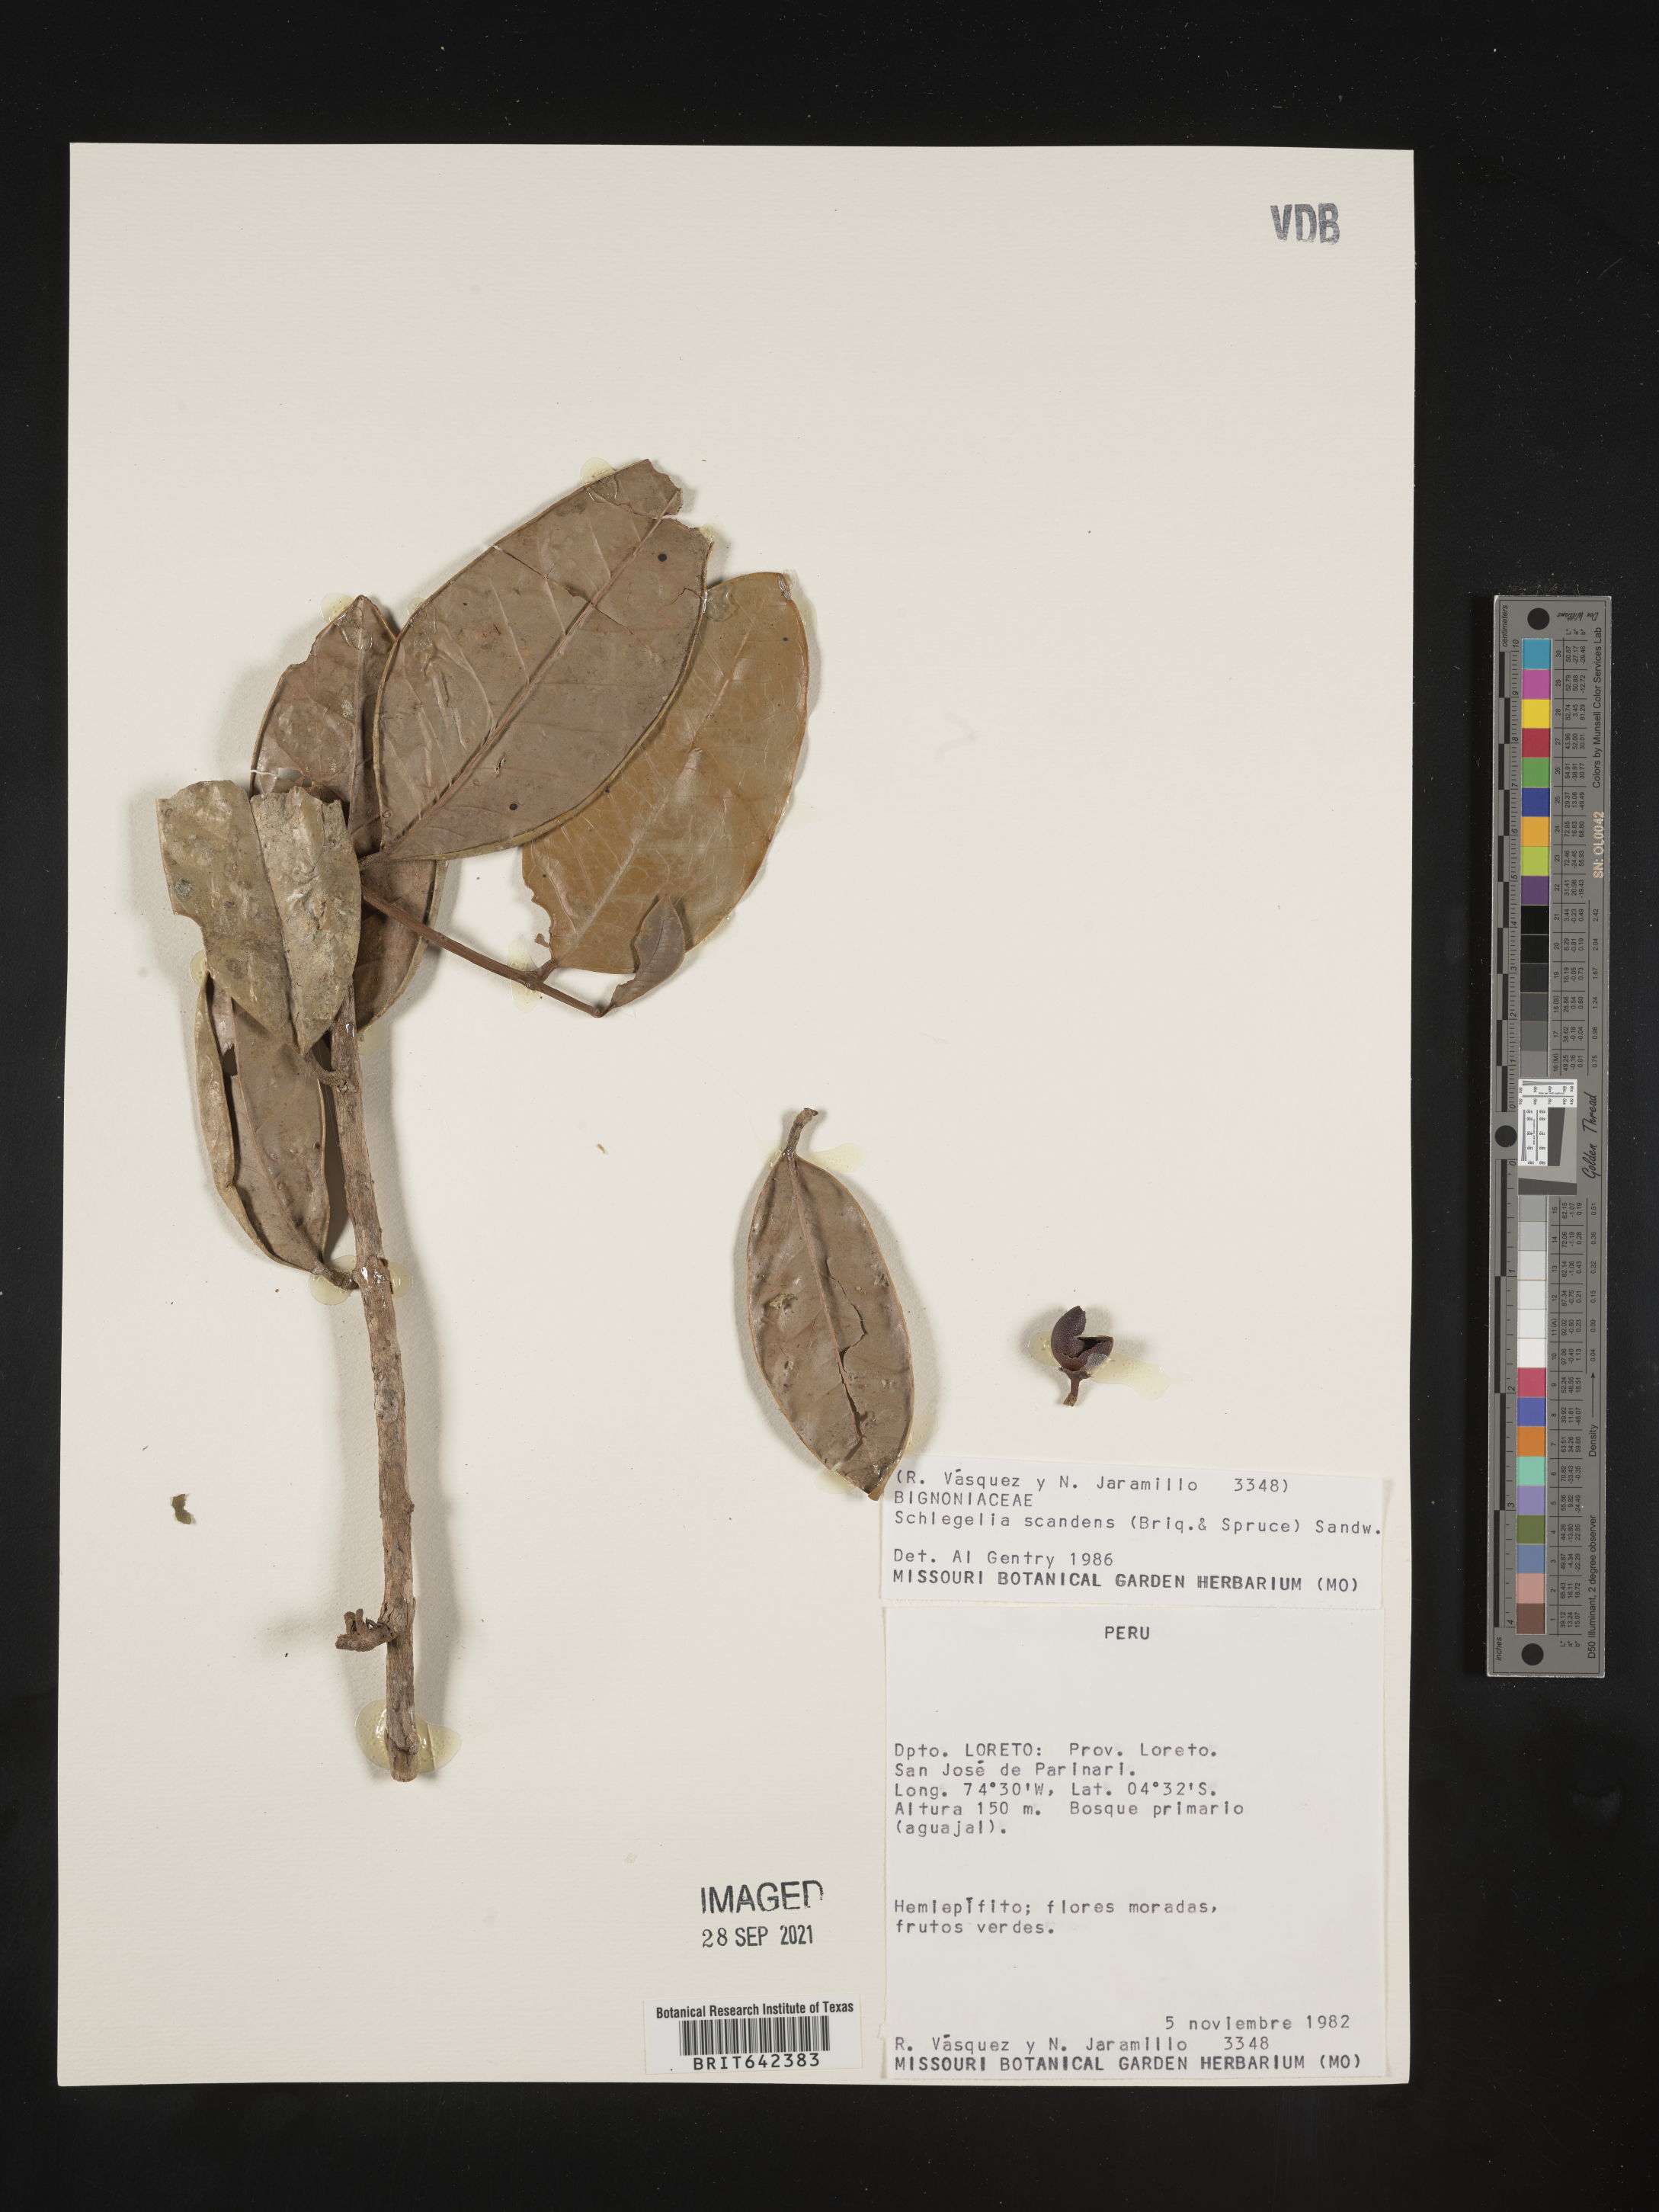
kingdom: Plantae
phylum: Tracheophyta
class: Magnoliopsida
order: Lamiales
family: Schlegeliaceae
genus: Schlegelia
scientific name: Schlegelia
